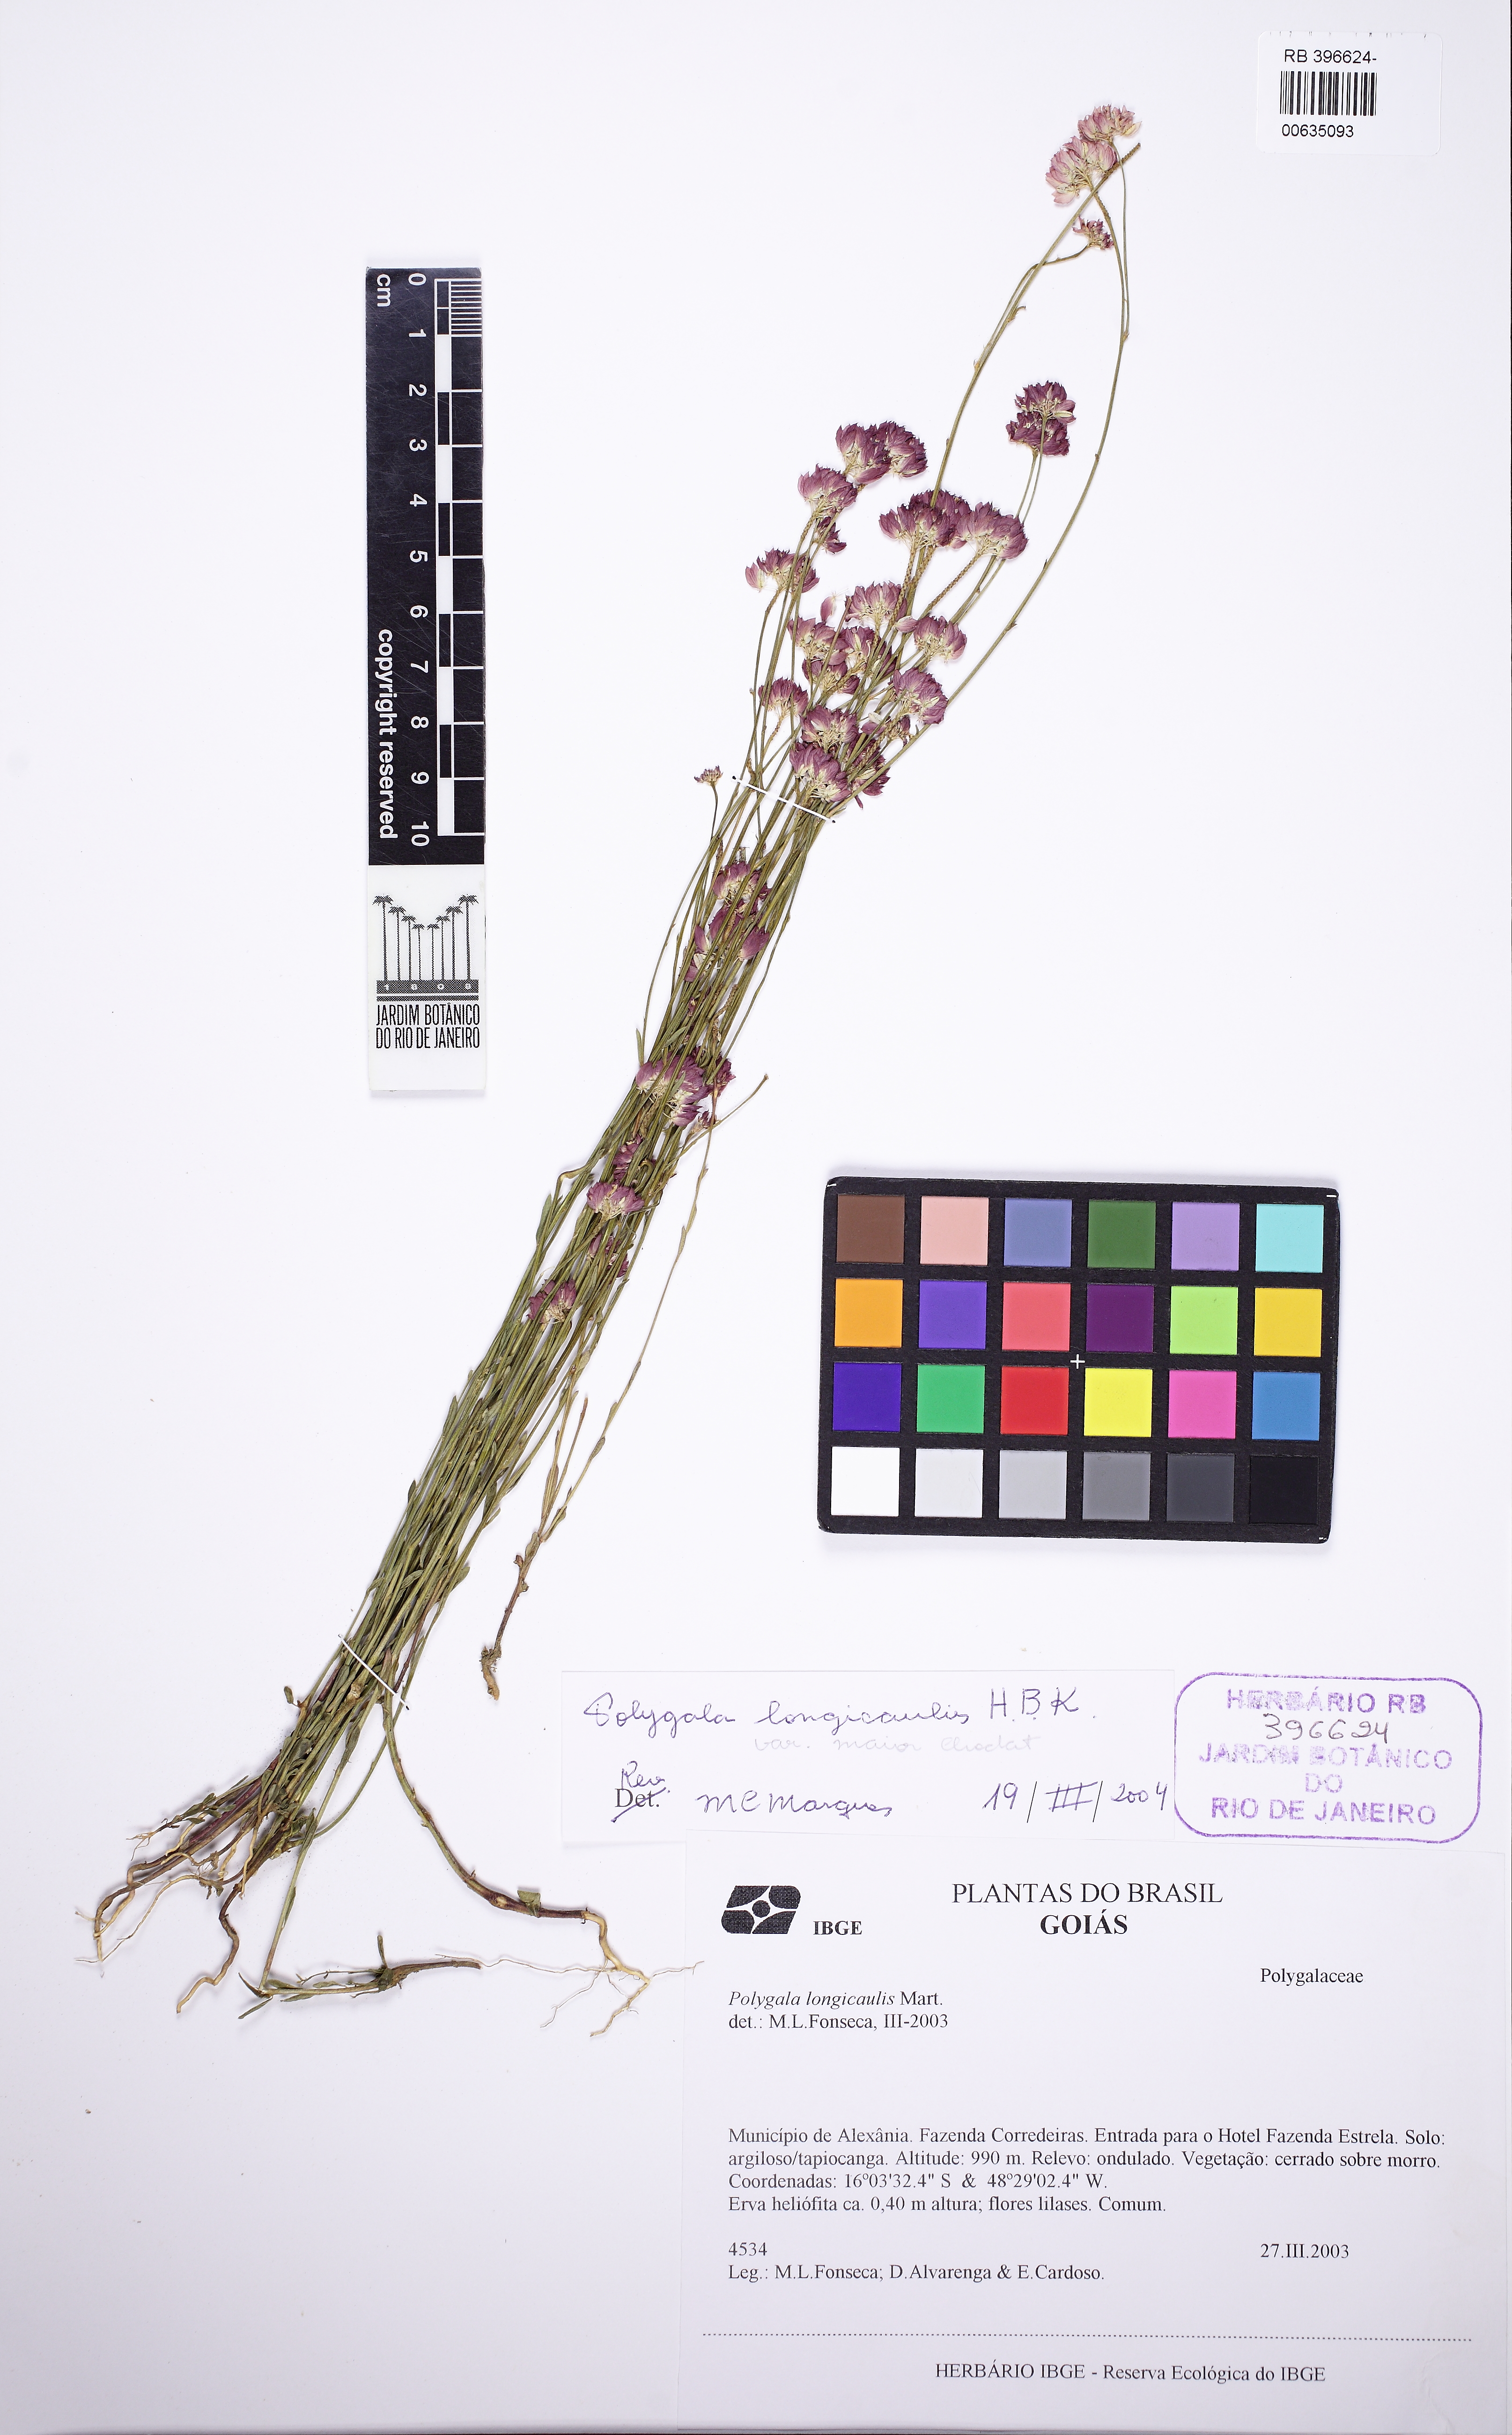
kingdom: Plantae
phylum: Tracheophyta
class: Magnoliopsida
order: Fabales
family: Polygalaceae
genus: Polygala
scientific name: Polygala longicaulis
